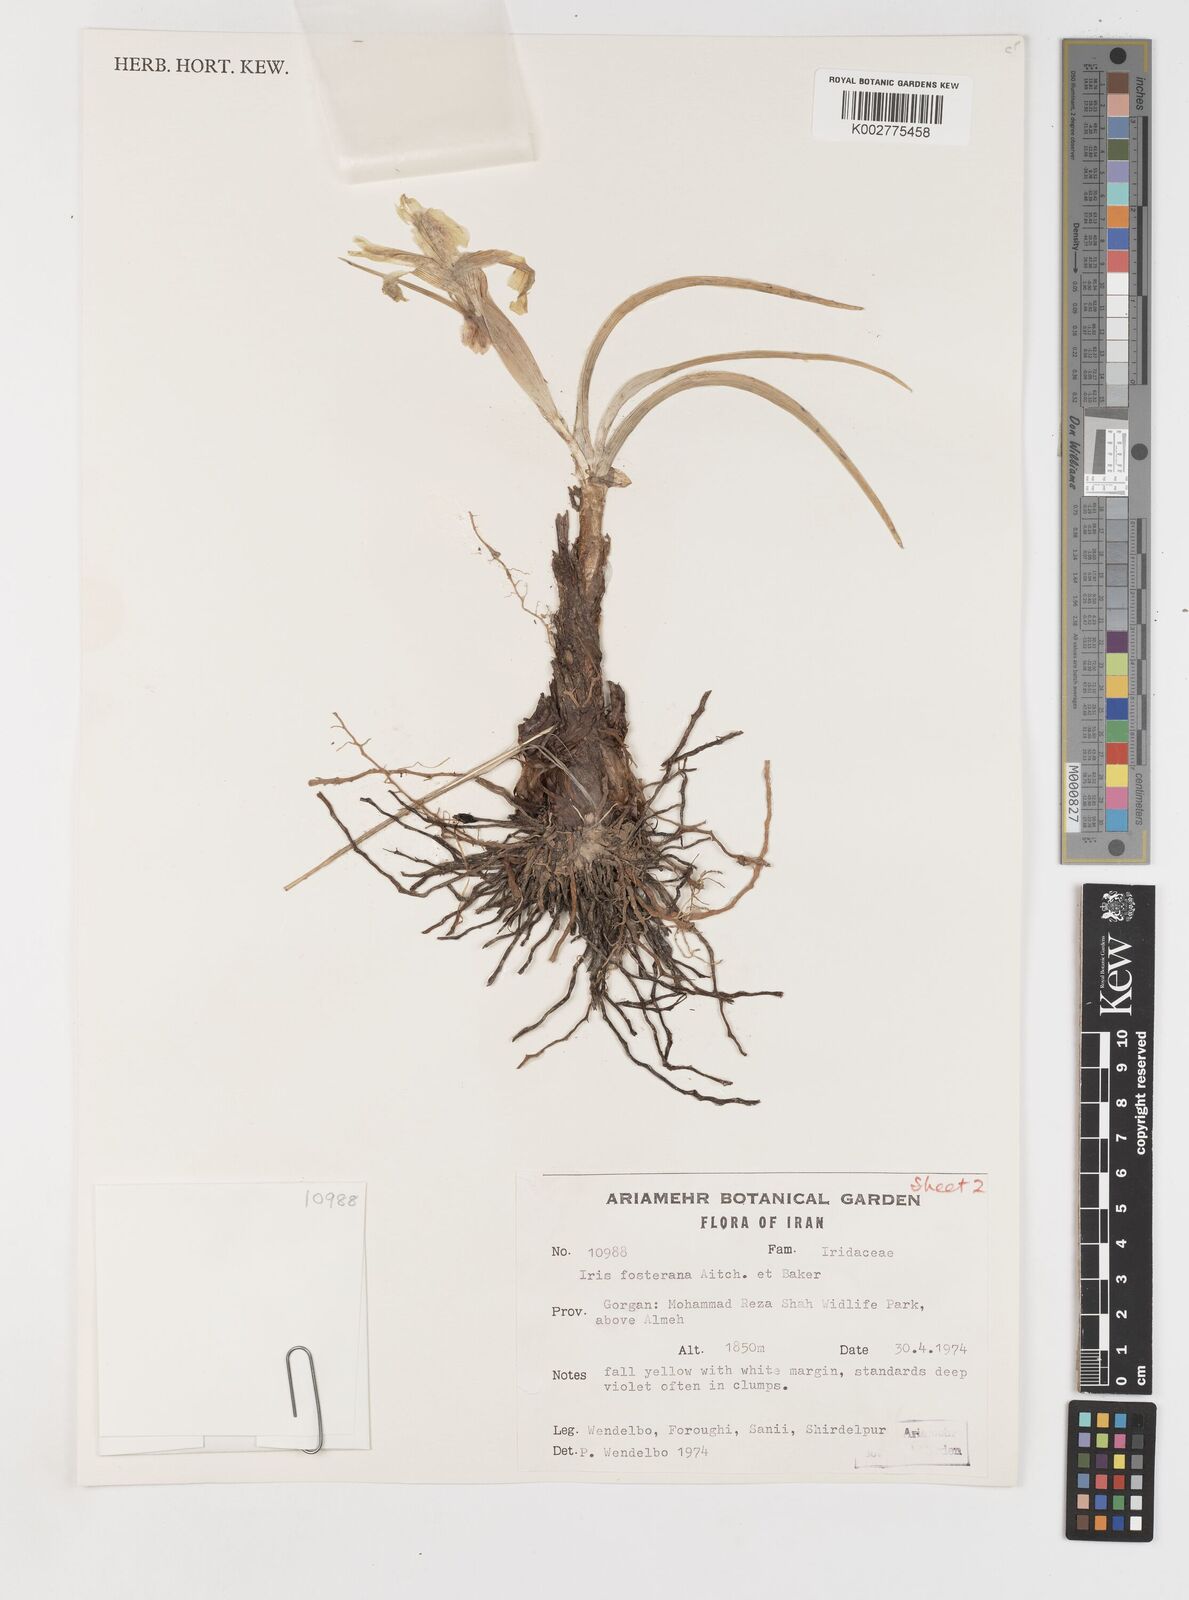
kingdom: Plantae
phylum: Tracheophyta
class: Liliopsida
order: Asparagales
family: Iridaceae
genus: Iris
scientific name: Iris fosteriana
